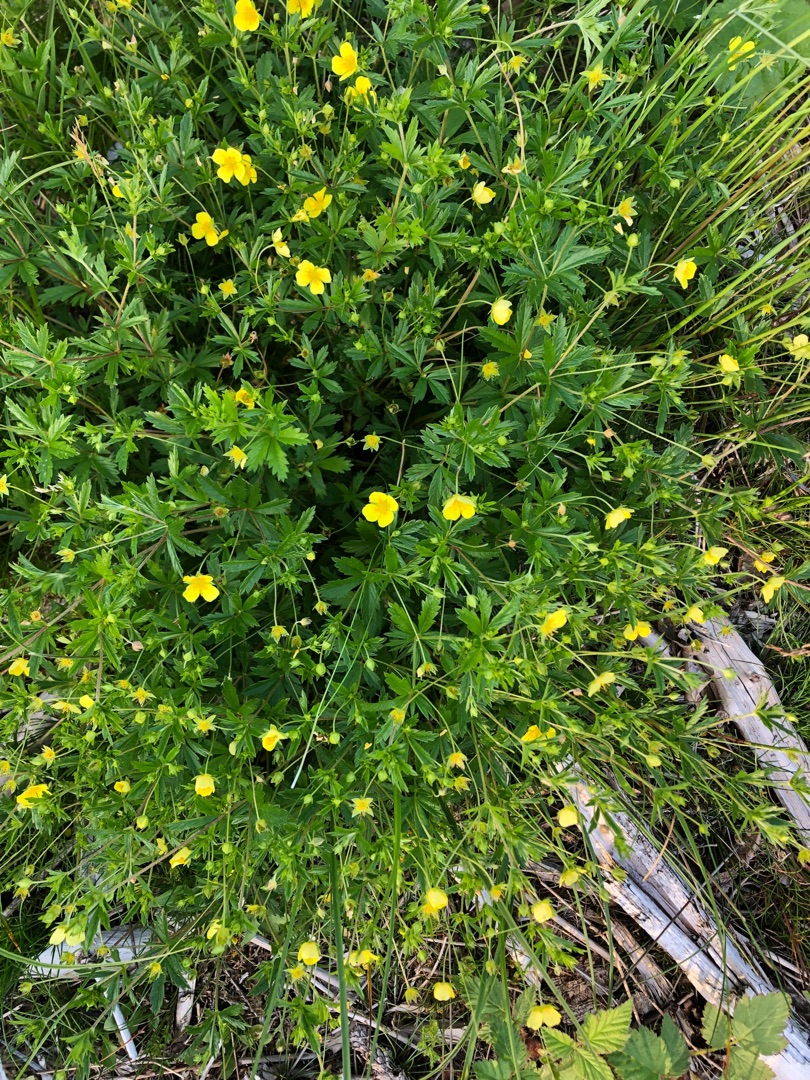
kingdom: Plantae
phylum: Tracheophyta
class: Magnoliopsida
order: Rosales
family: Rosaceae
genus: Potentilla
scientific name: Potentilla erecta
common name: Tormentil
